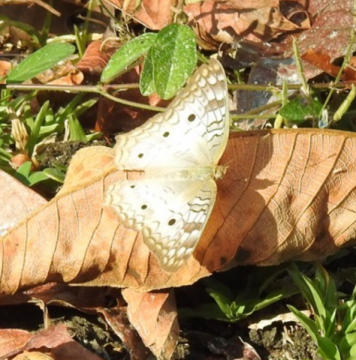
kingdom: Animalia
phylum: Arthropoda
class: Insecta
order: Lepidoptera
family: Nymphalidae
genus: Anartia
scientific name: Anartia jatrophae
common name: White Peacock
